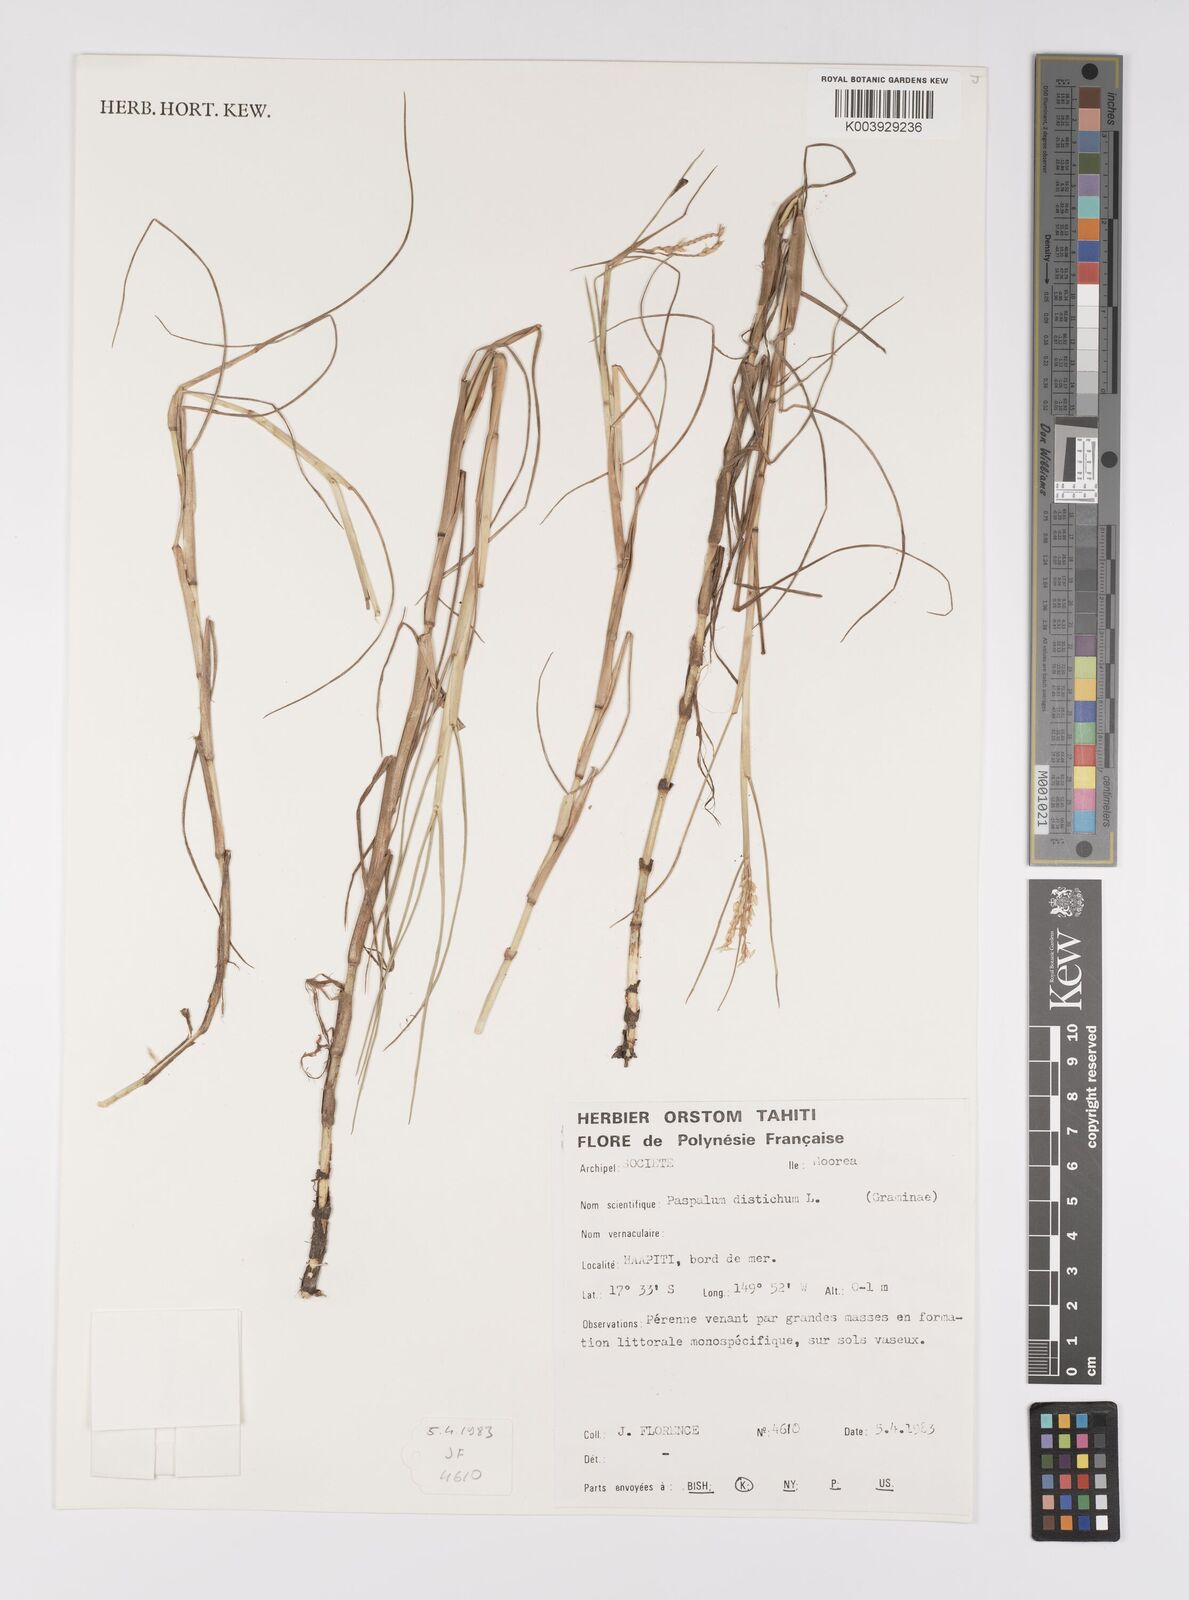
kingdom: Plantae
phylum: Tracheophyta
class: Liliopsida
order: Poales
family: Poaceae
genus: Paspalum
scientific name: Paspalum vaginatum
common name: Seashore paspalum
